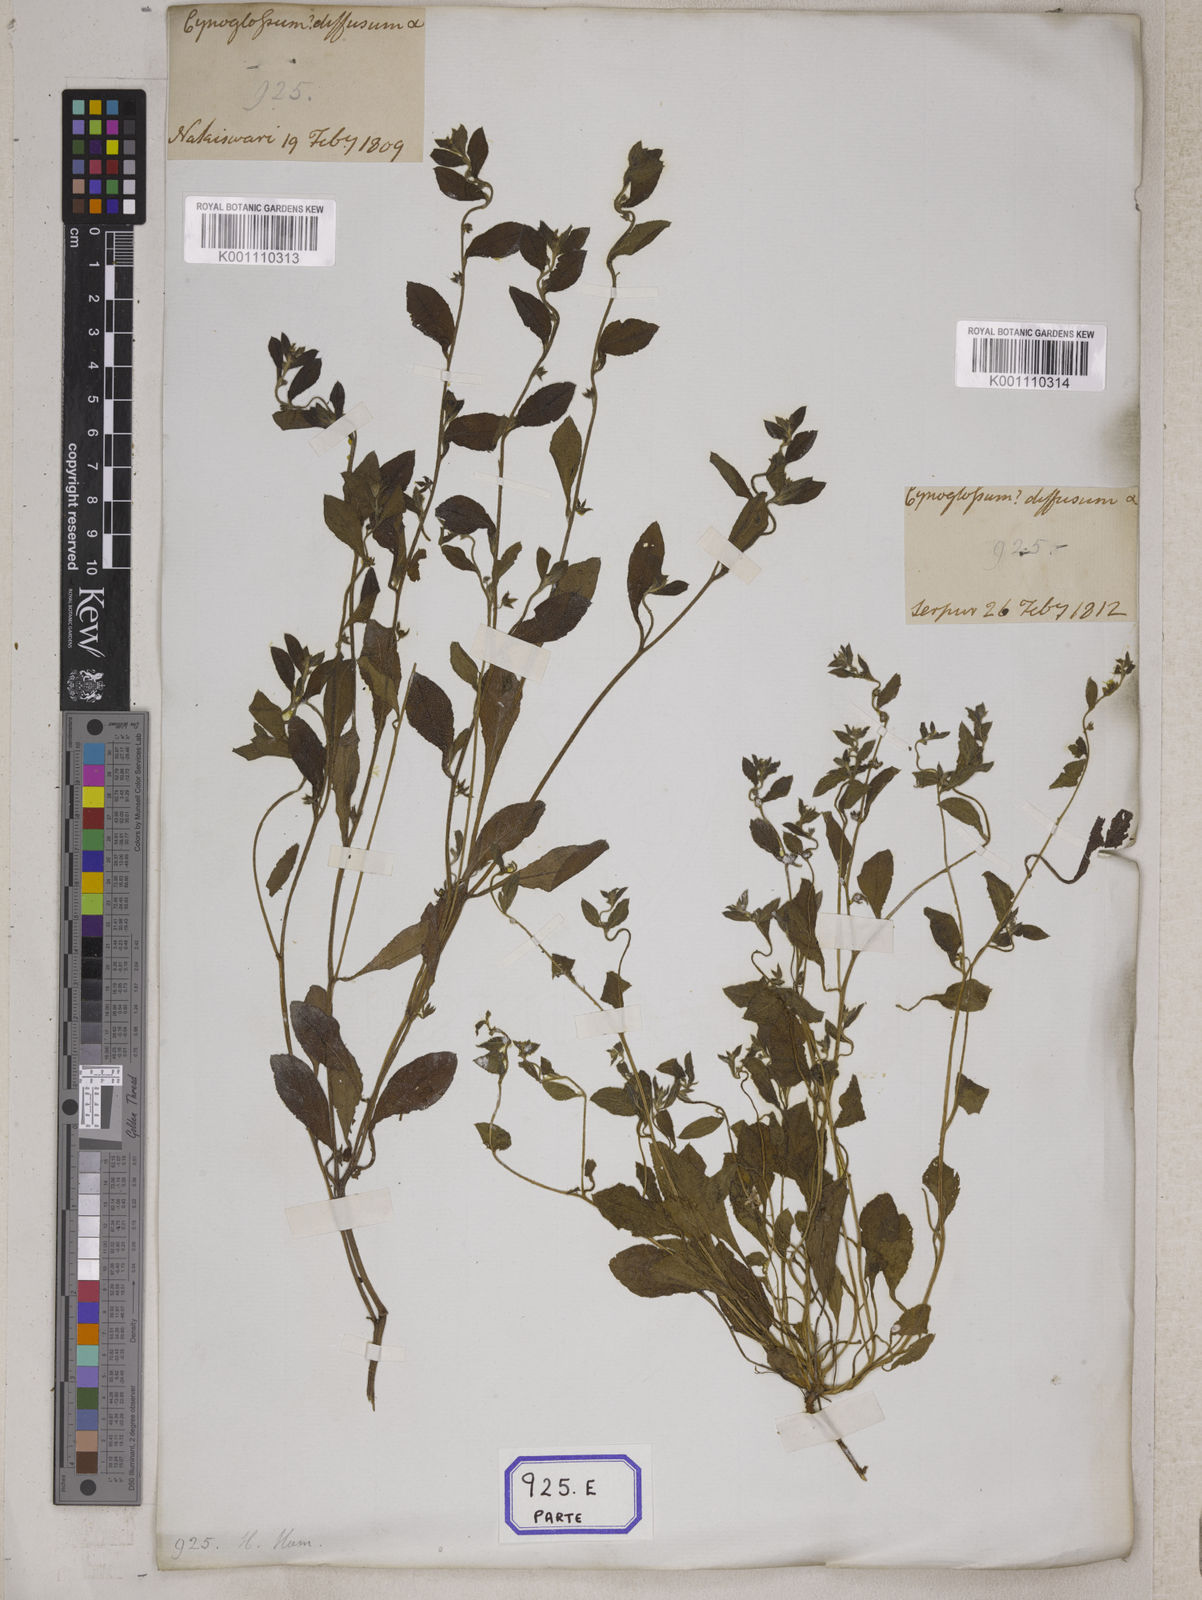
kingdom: Plantae
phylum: Tracheophyta
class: Magnoliopsida
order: Boraginales
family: Boraginaceae
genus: Cynoglossum
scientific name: Cynoglossum
